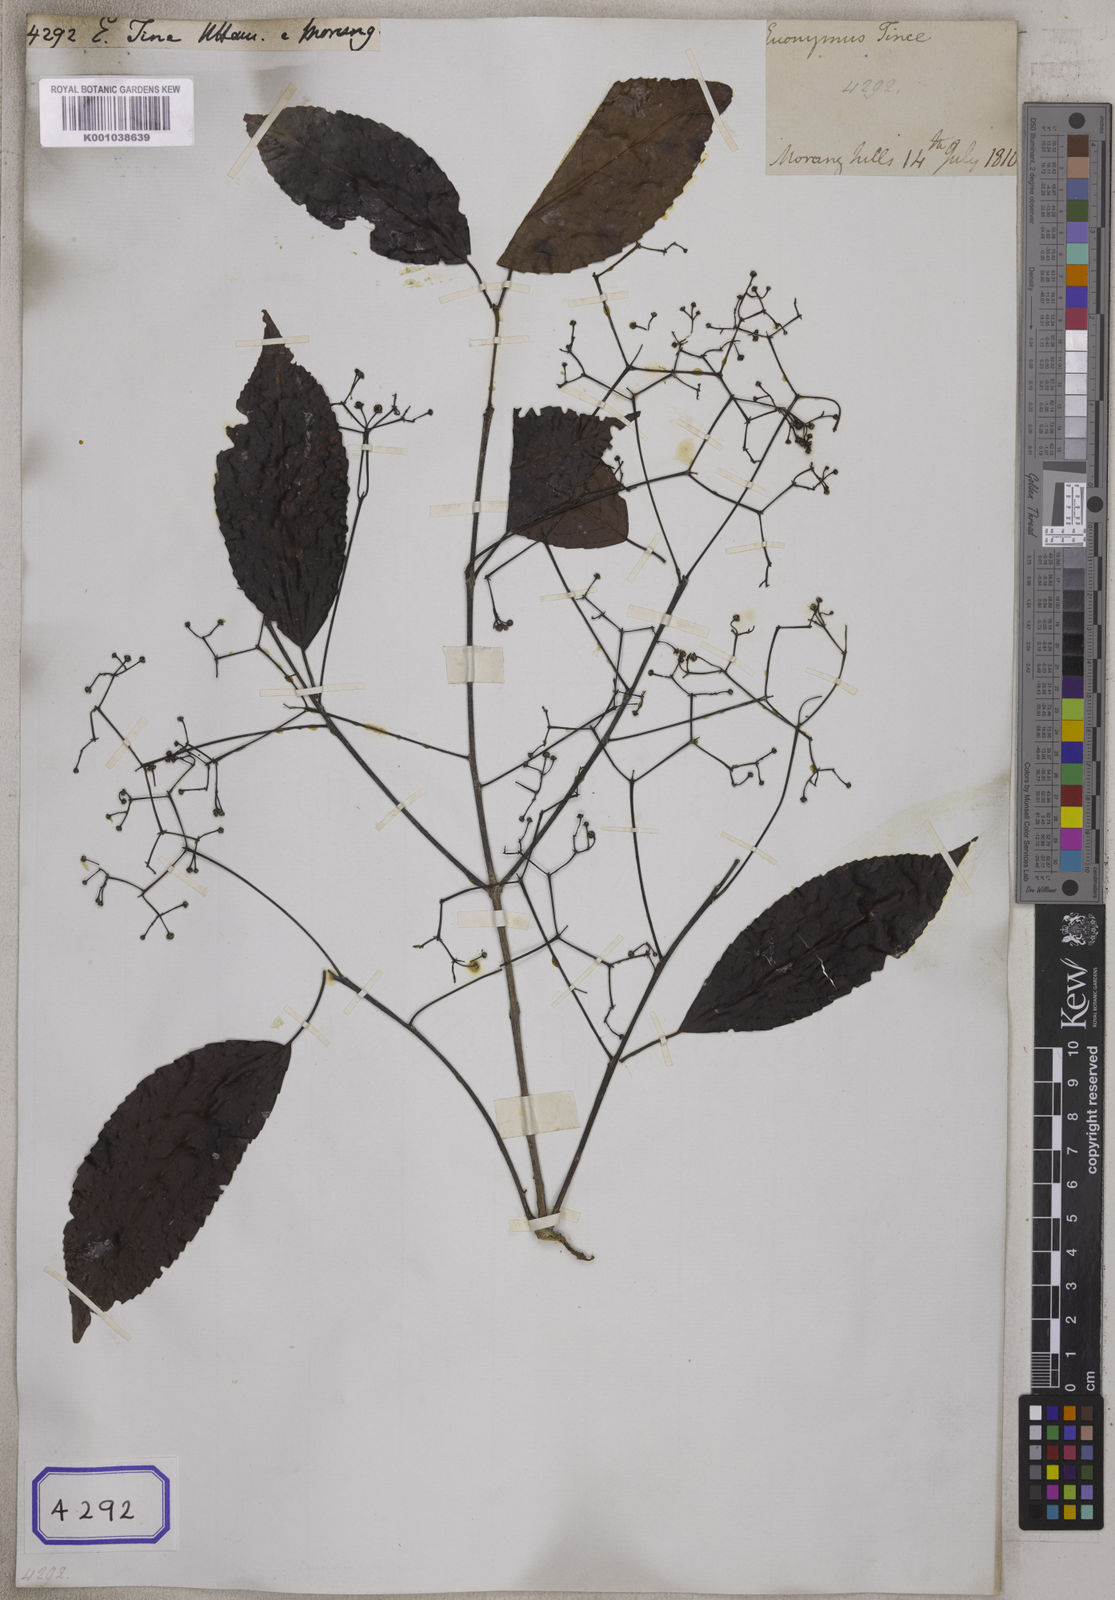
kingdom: Plantae
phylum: Tracheophyta
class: Magnoliopsida
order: Celastrales
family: Celastraceae
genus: Euonymus
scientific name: Euonymus
